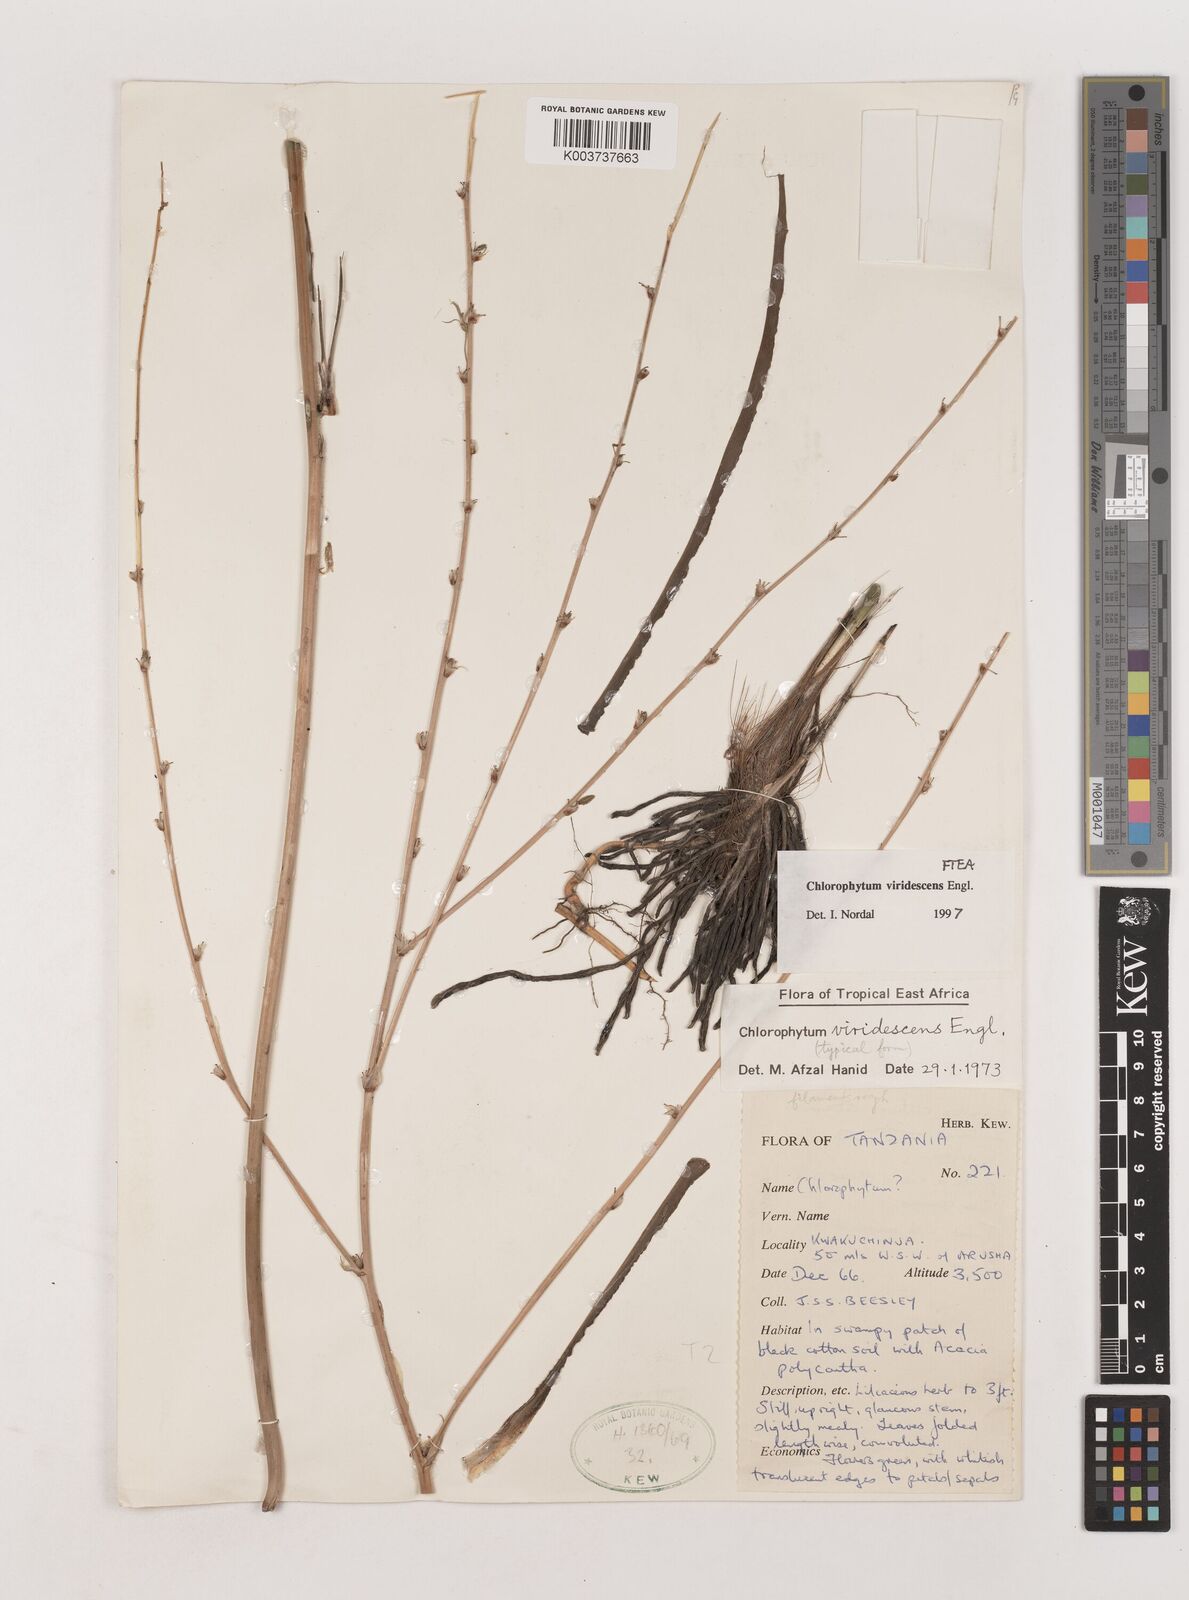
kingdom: Plantae
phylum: Tracheophyta
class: Liliopsida
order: Asparagales
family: Asparagaceae
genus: Chlorophytum
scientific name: Chlorophytum viridescens
